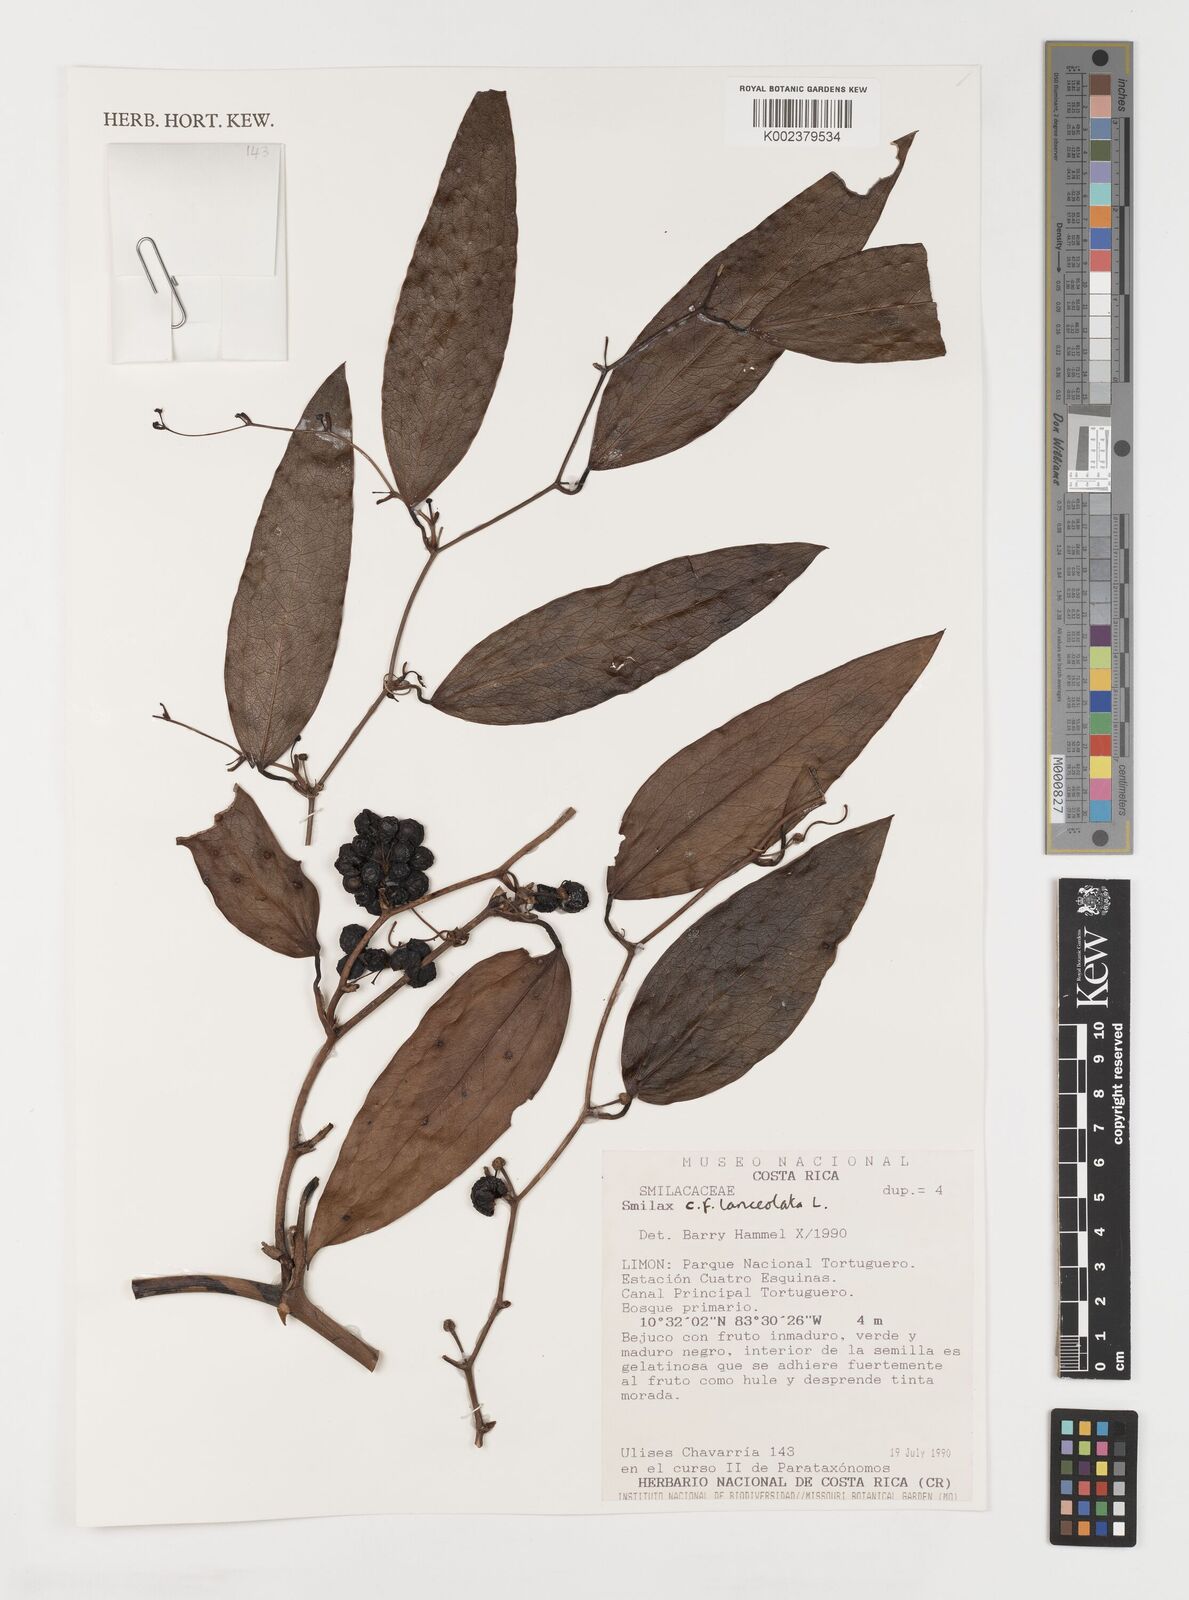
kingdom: Plantae
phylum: Tracheophyta
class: Liliopsida
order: Liliales
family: Smilacaceae
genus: Smilax
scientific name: Smilax laurifolia
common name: Bamboovine
